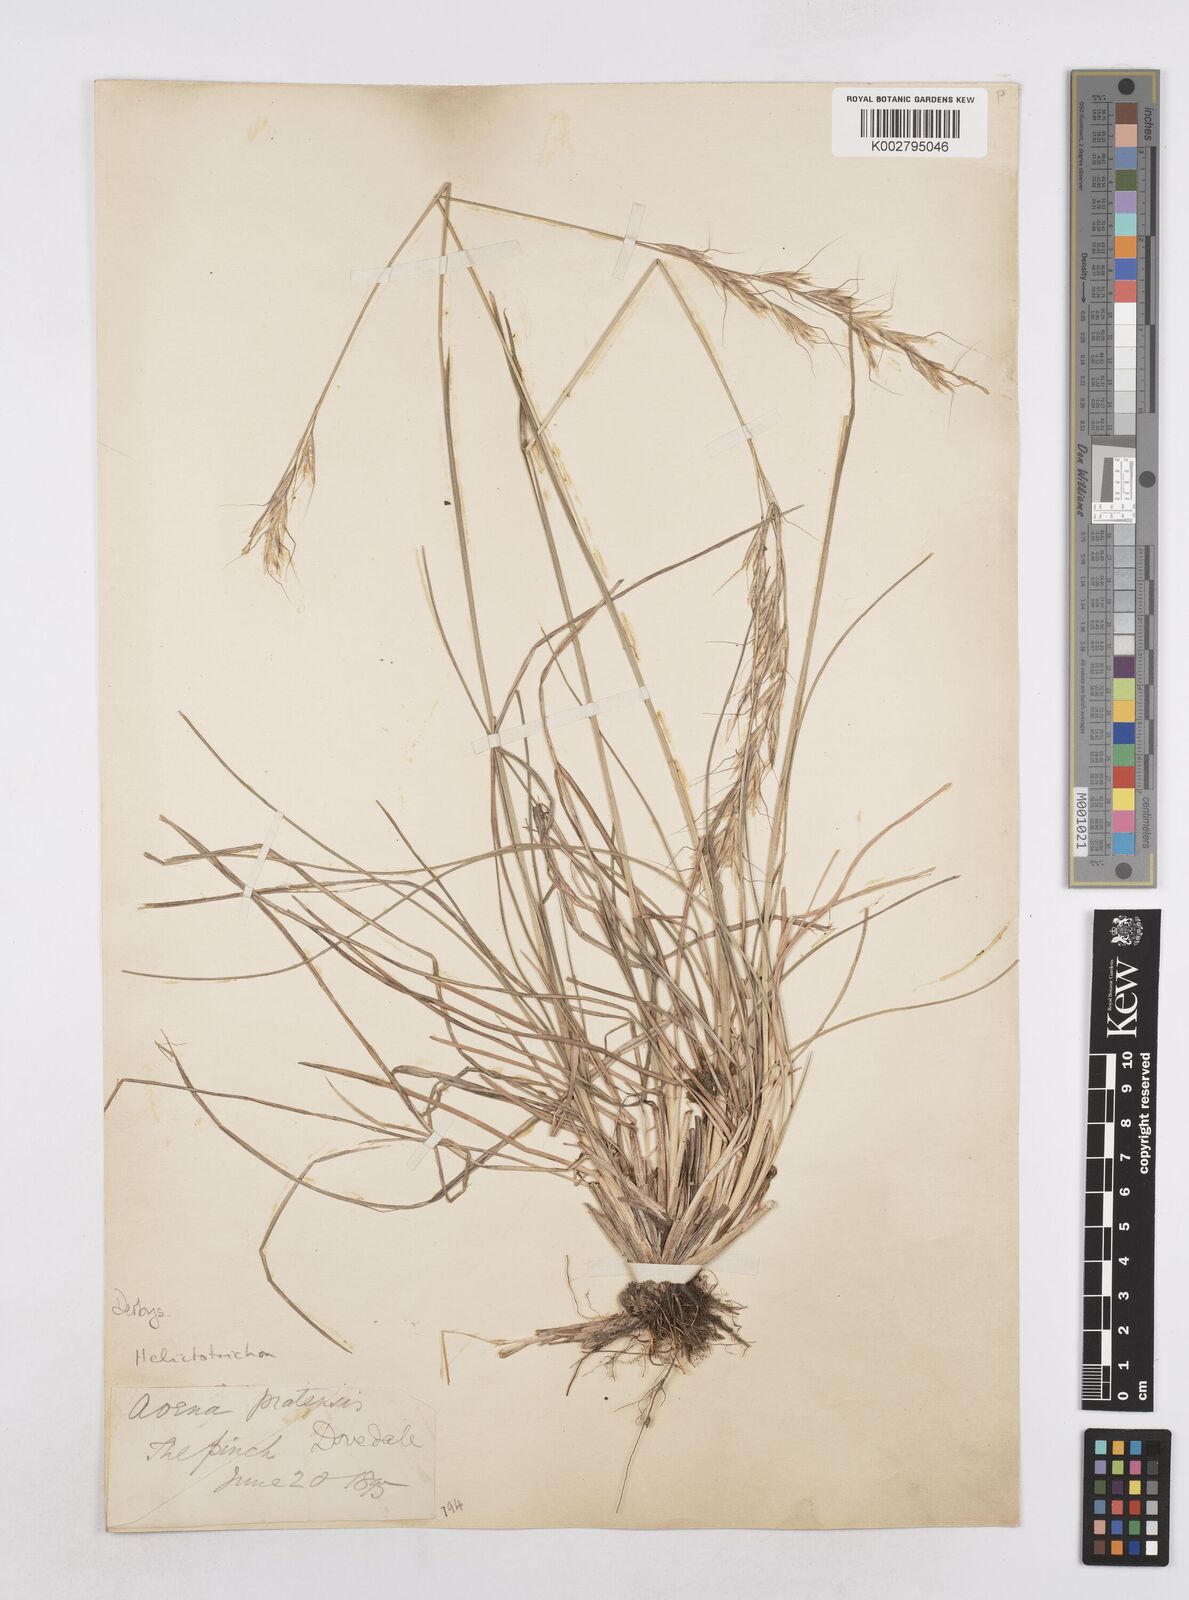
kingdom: Plantae
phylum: Tracheophyta
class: Liliopsida
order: Poales
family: Poaceae
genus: Helictochloa
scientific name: Helictochloa pratensis
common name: Meadow oat grass
